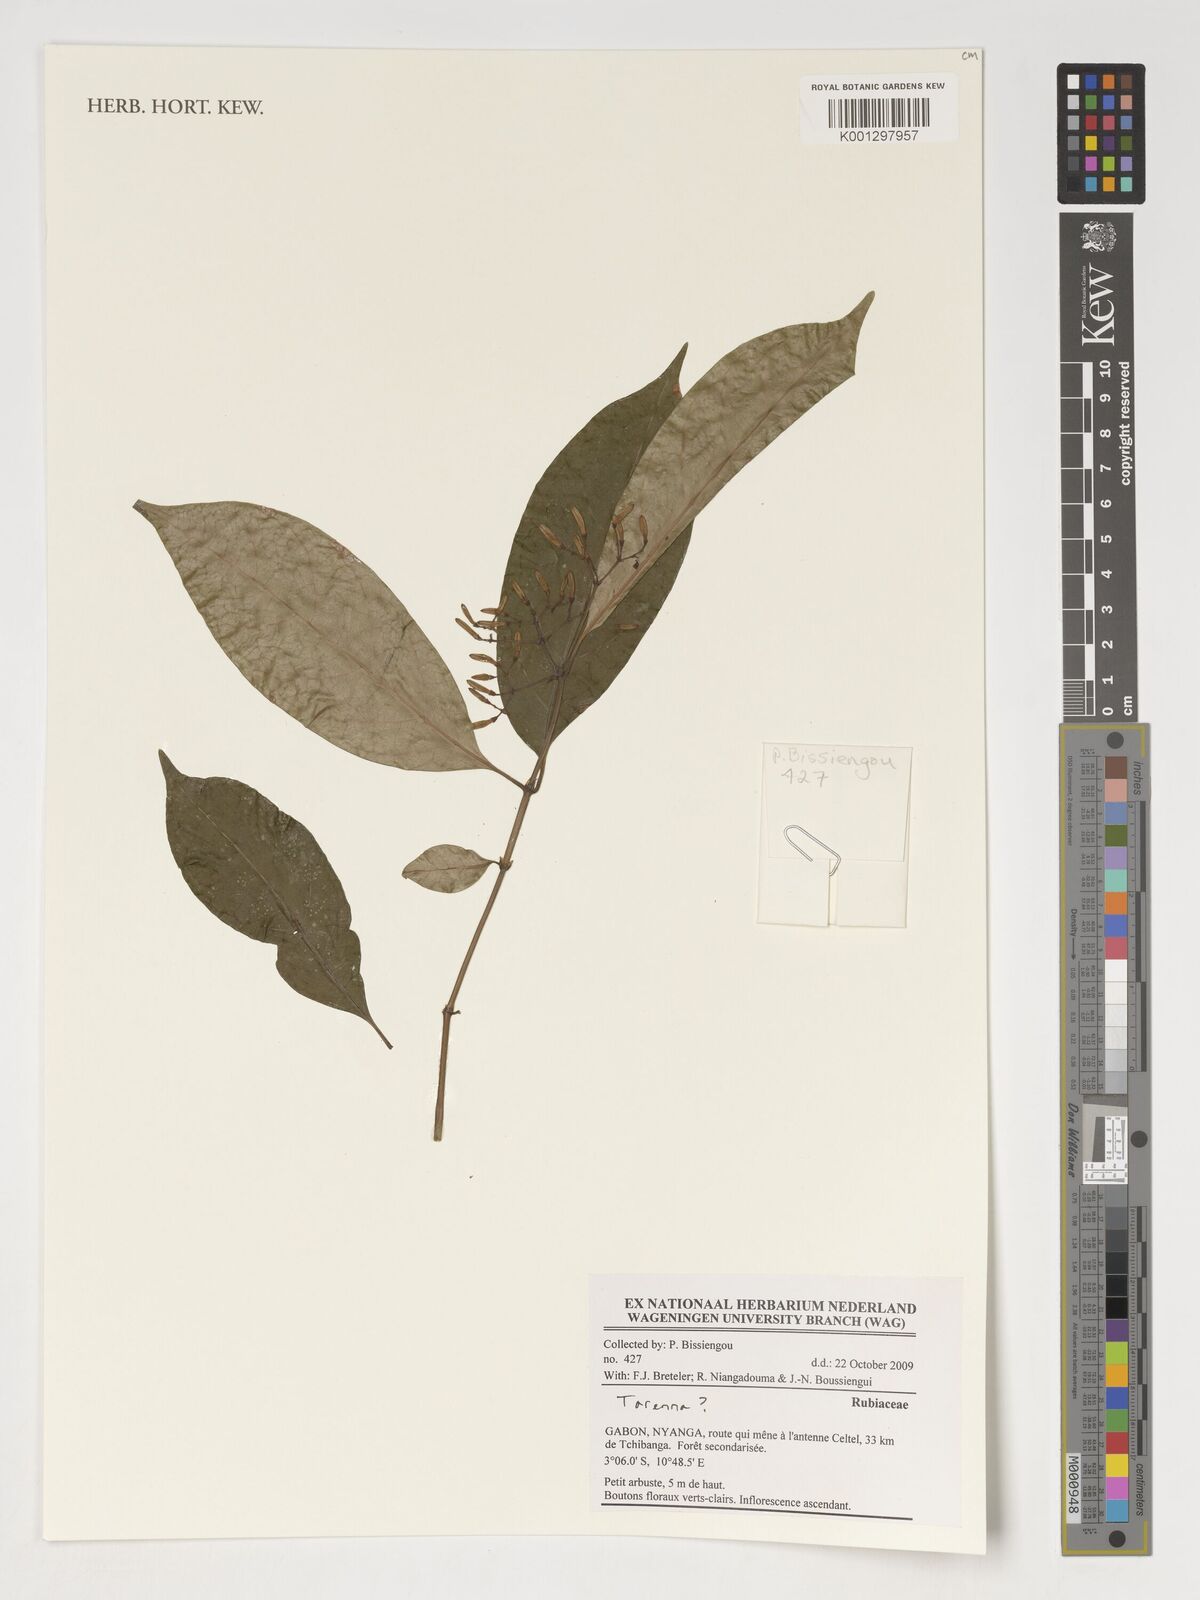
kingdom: Plantae
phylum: Tracheophyta
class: Magnoliopsida
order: Gentianales
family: Rubiaceae
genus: Tarenna
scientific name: Tarenna
